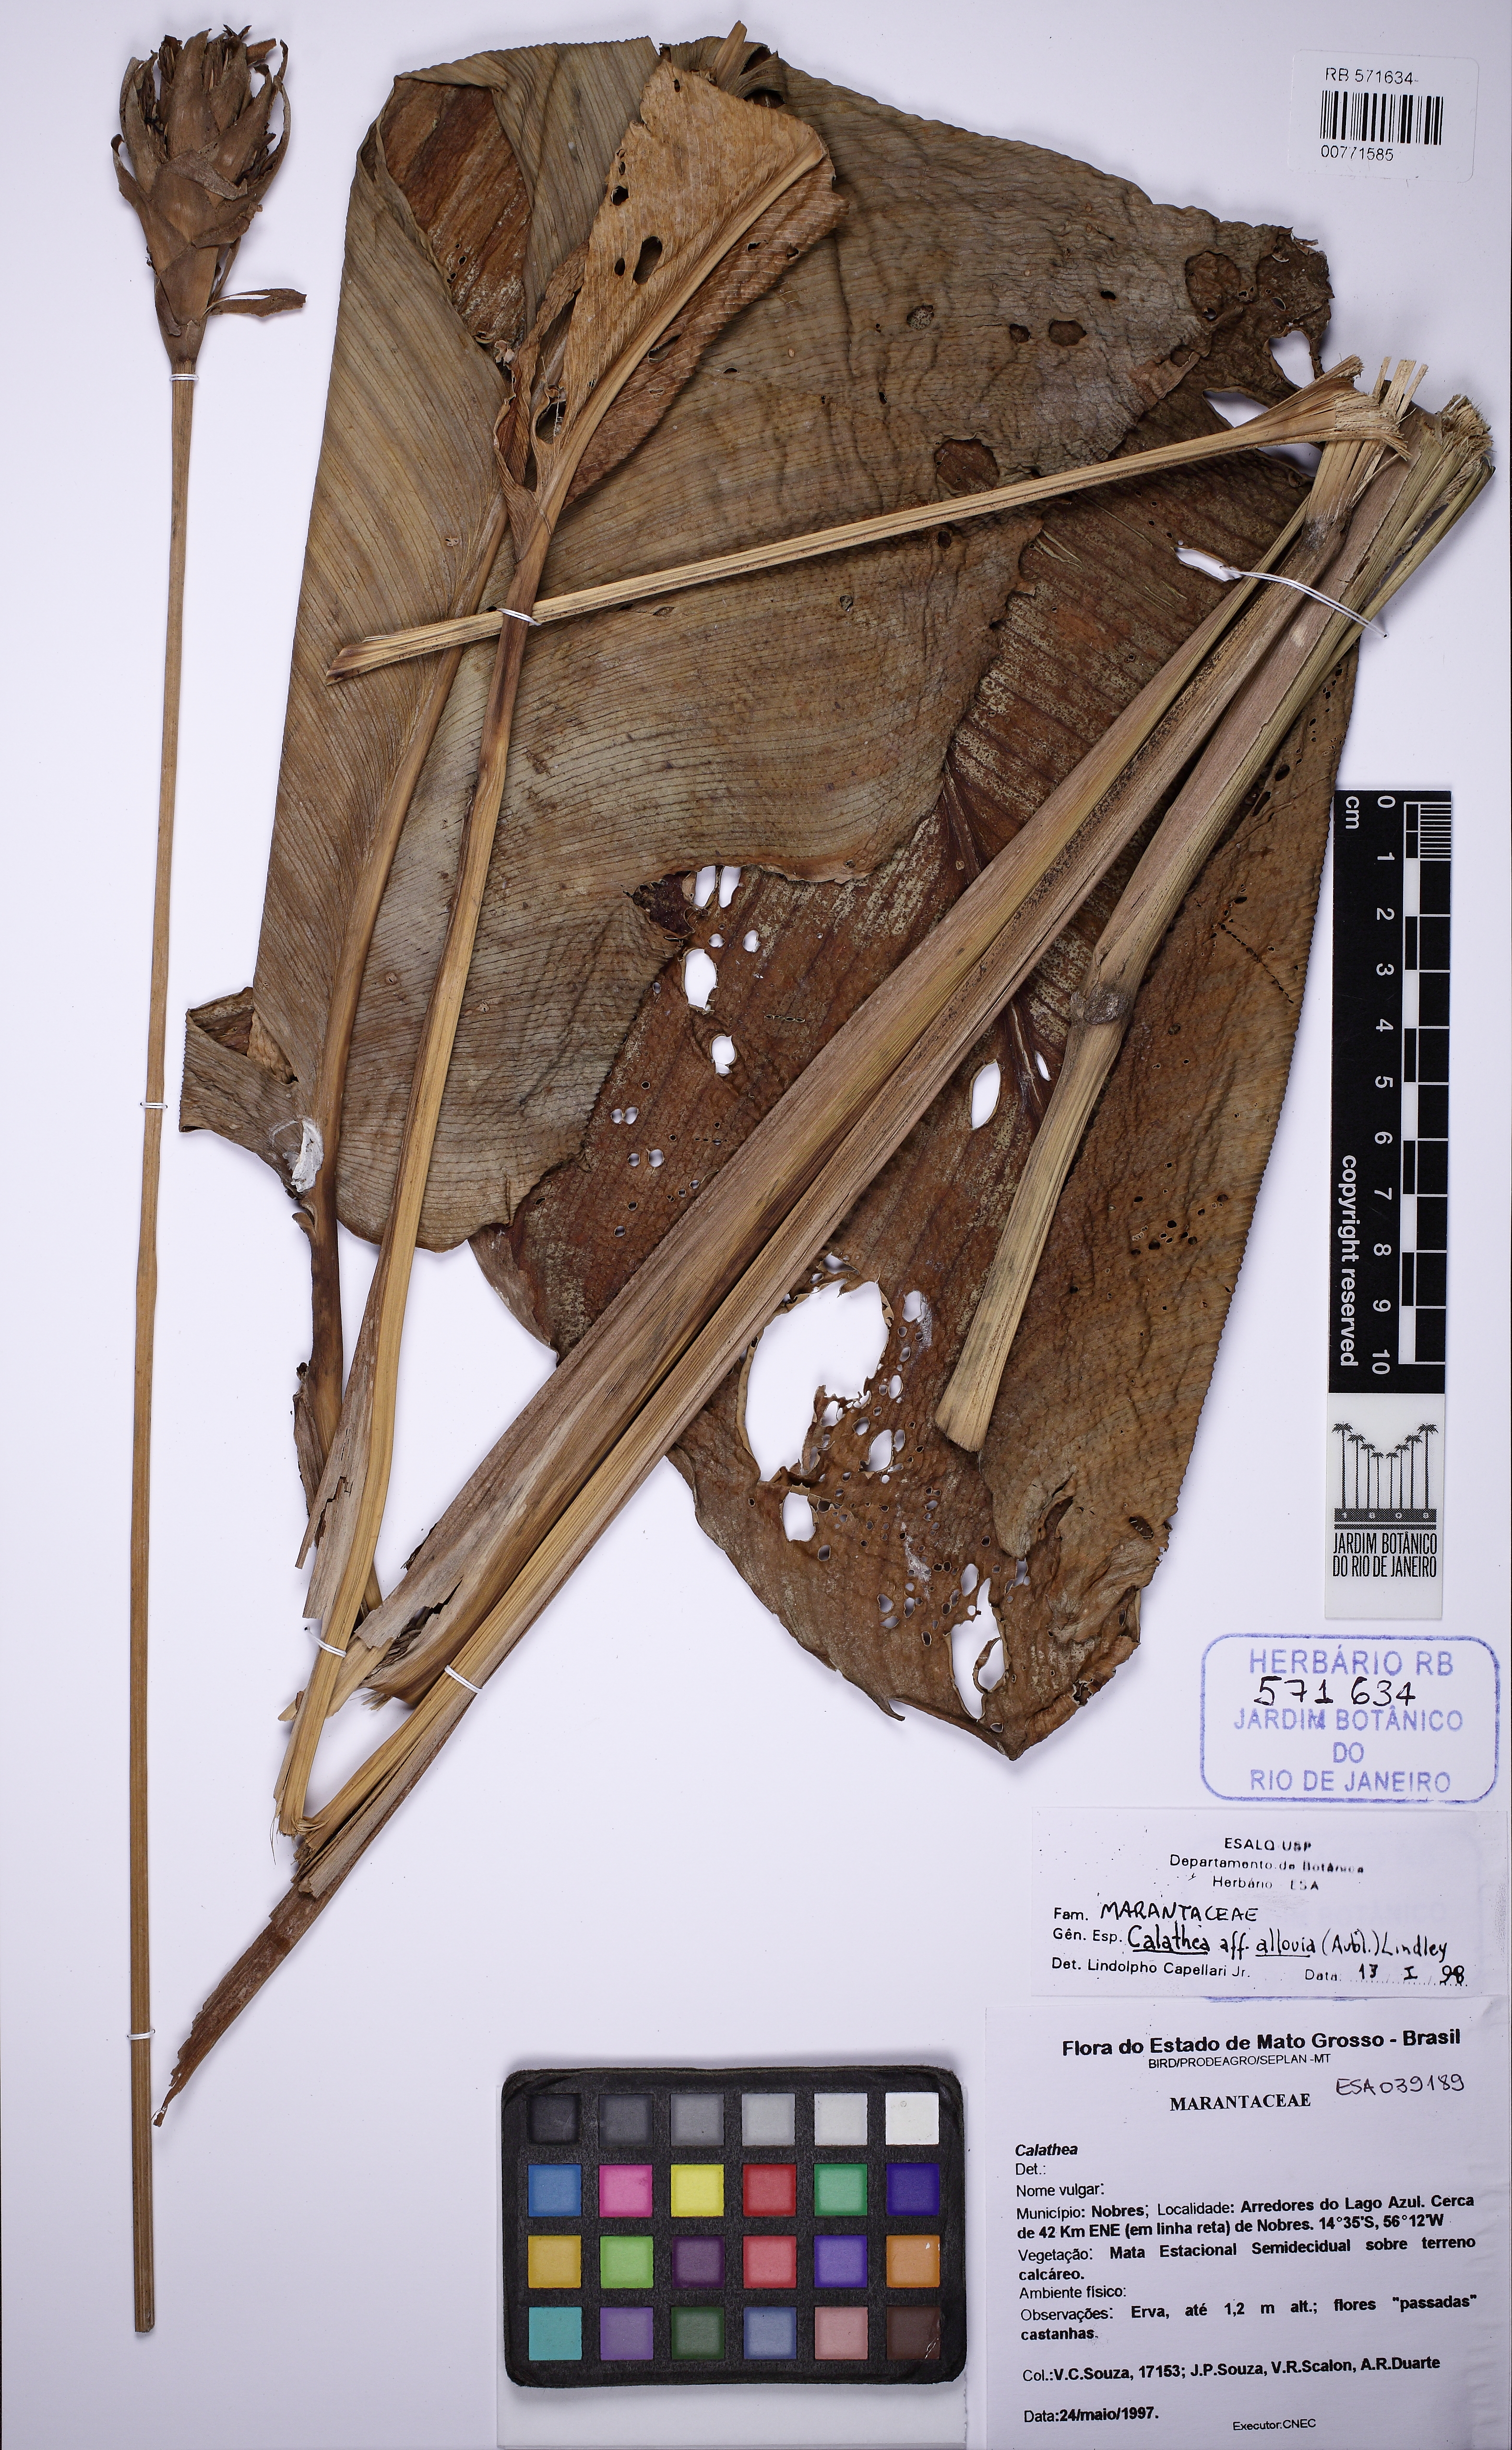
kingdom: Plantae
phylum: Tracheophyta
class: Liliopsida
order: Zingiberales
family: Marantaceae
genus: Goeppertia
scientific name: Goeppertia barbata
